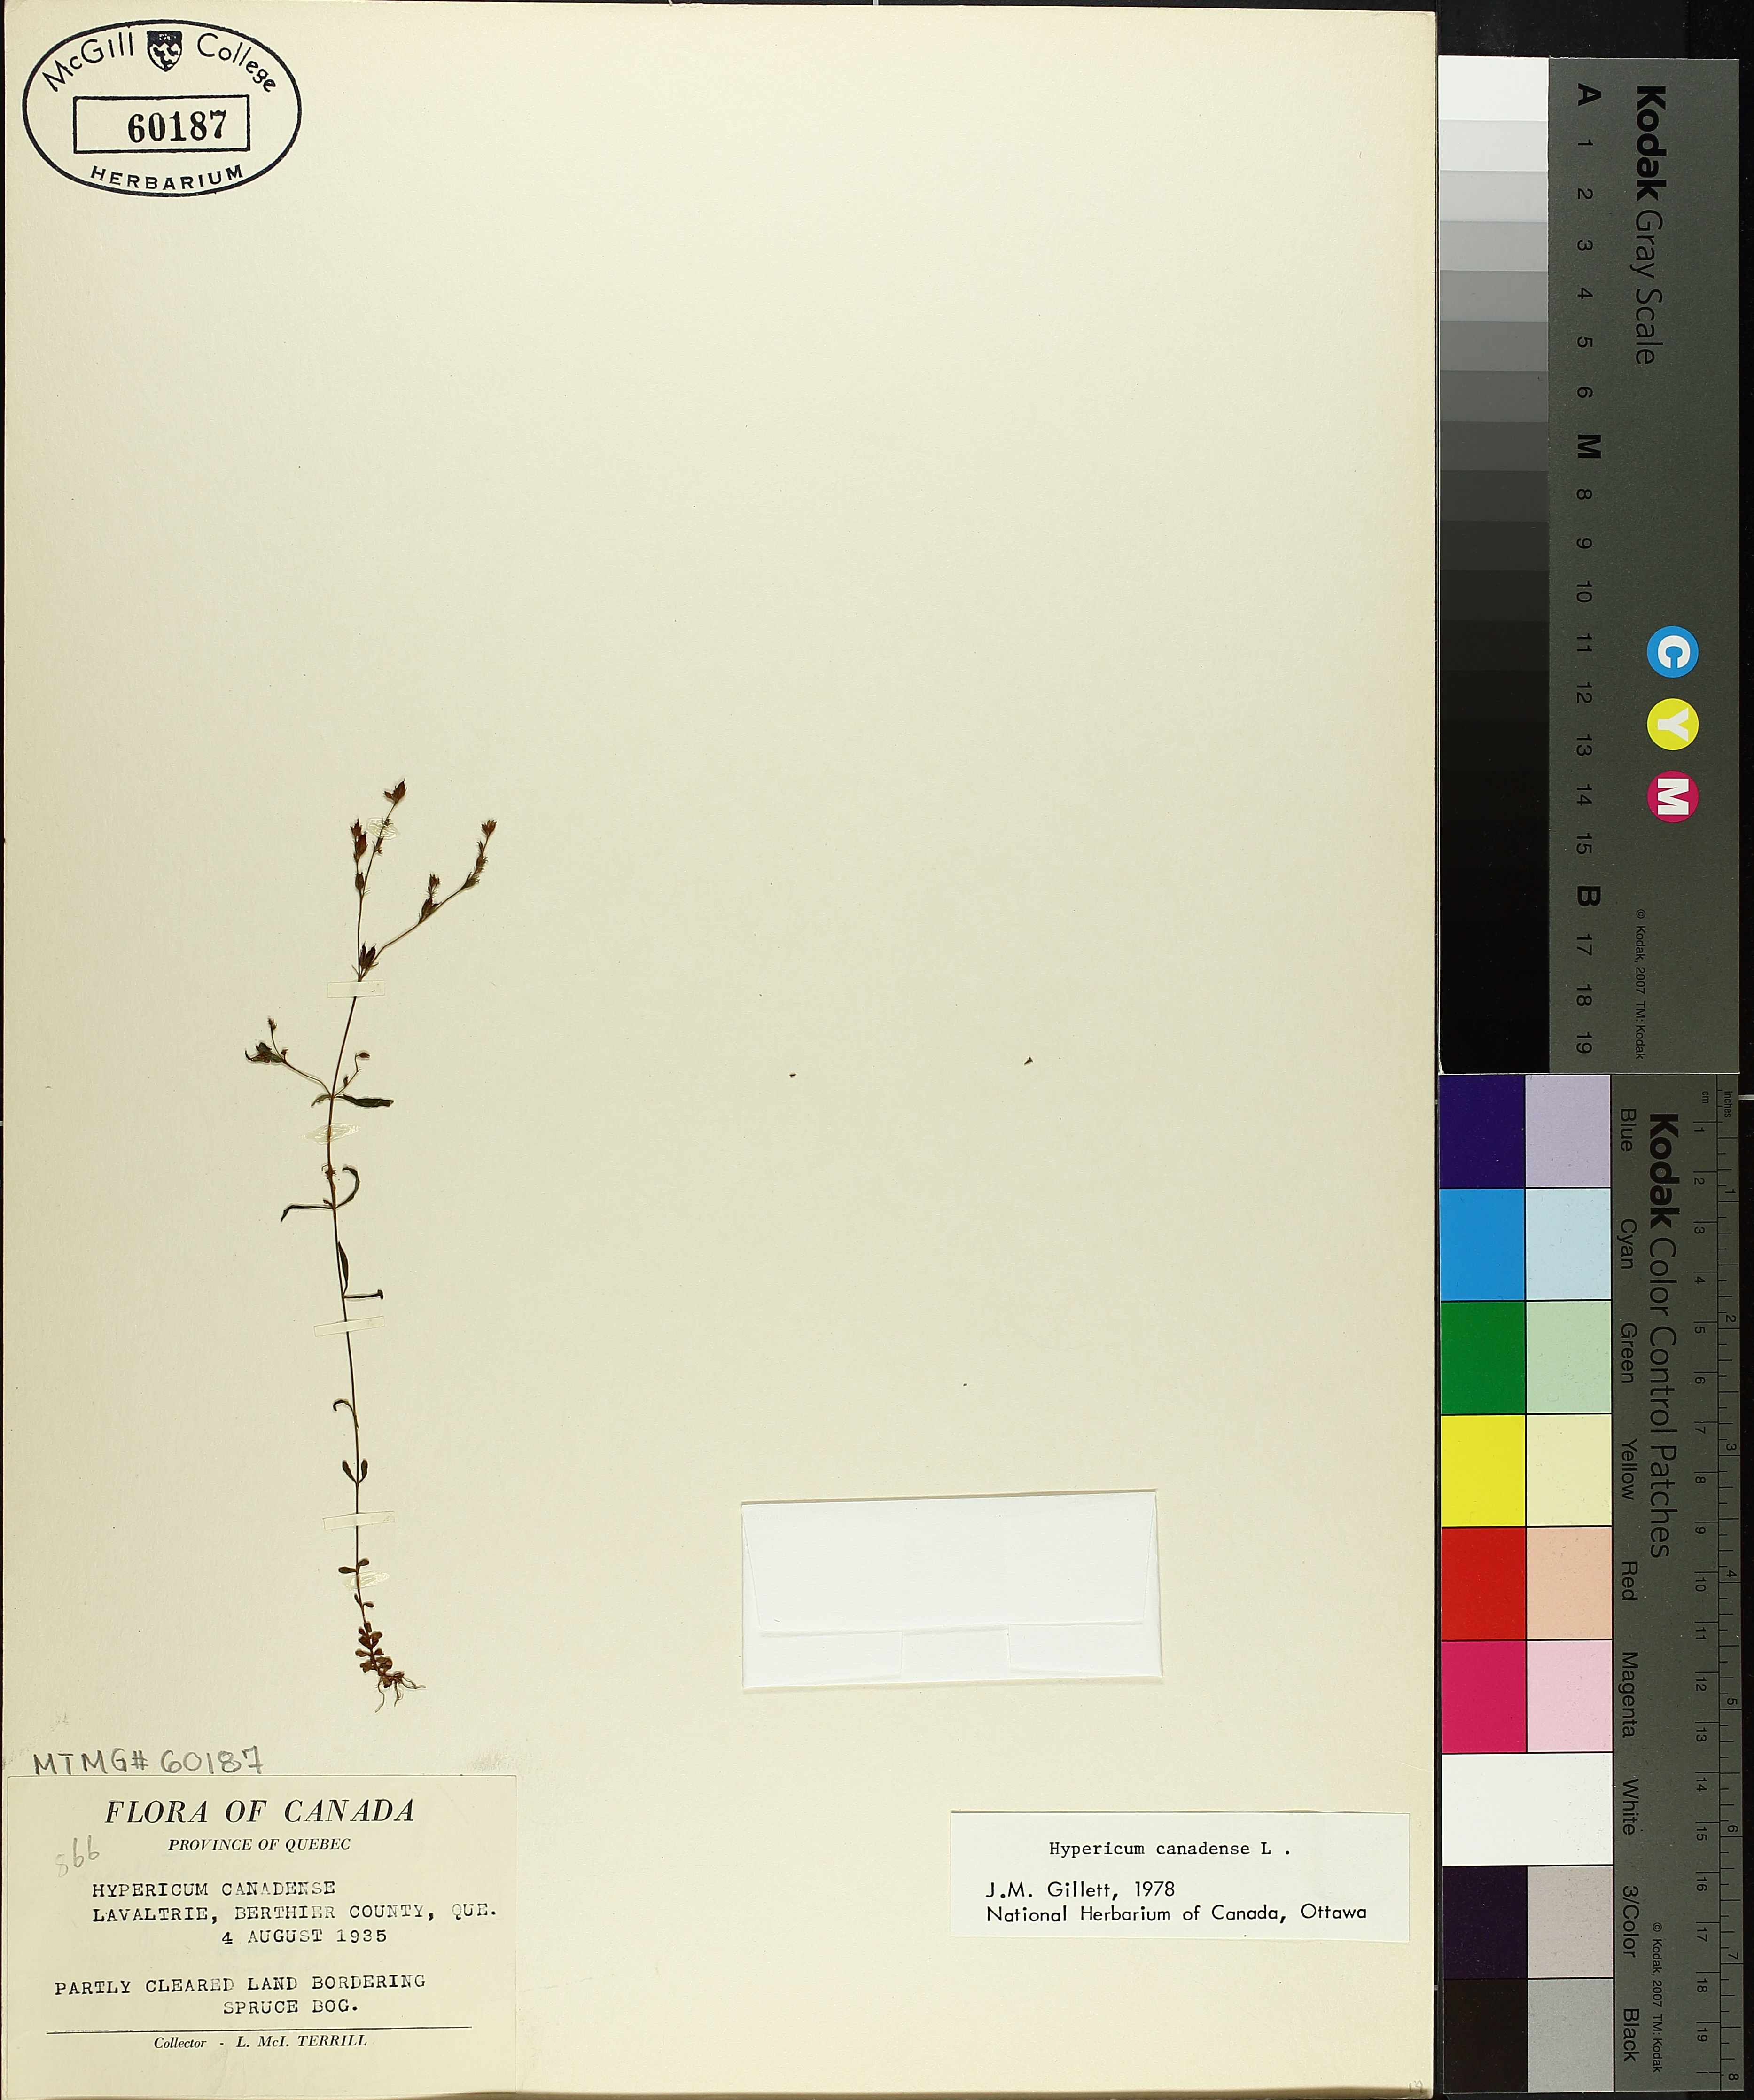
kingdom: Plantae
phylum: Tracheophyta
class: Magnoliopsida
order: Malpighiales
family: Hypericaceae
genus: Hypericum
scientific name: Hypericum canadense
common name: Irish st. john's-wort
